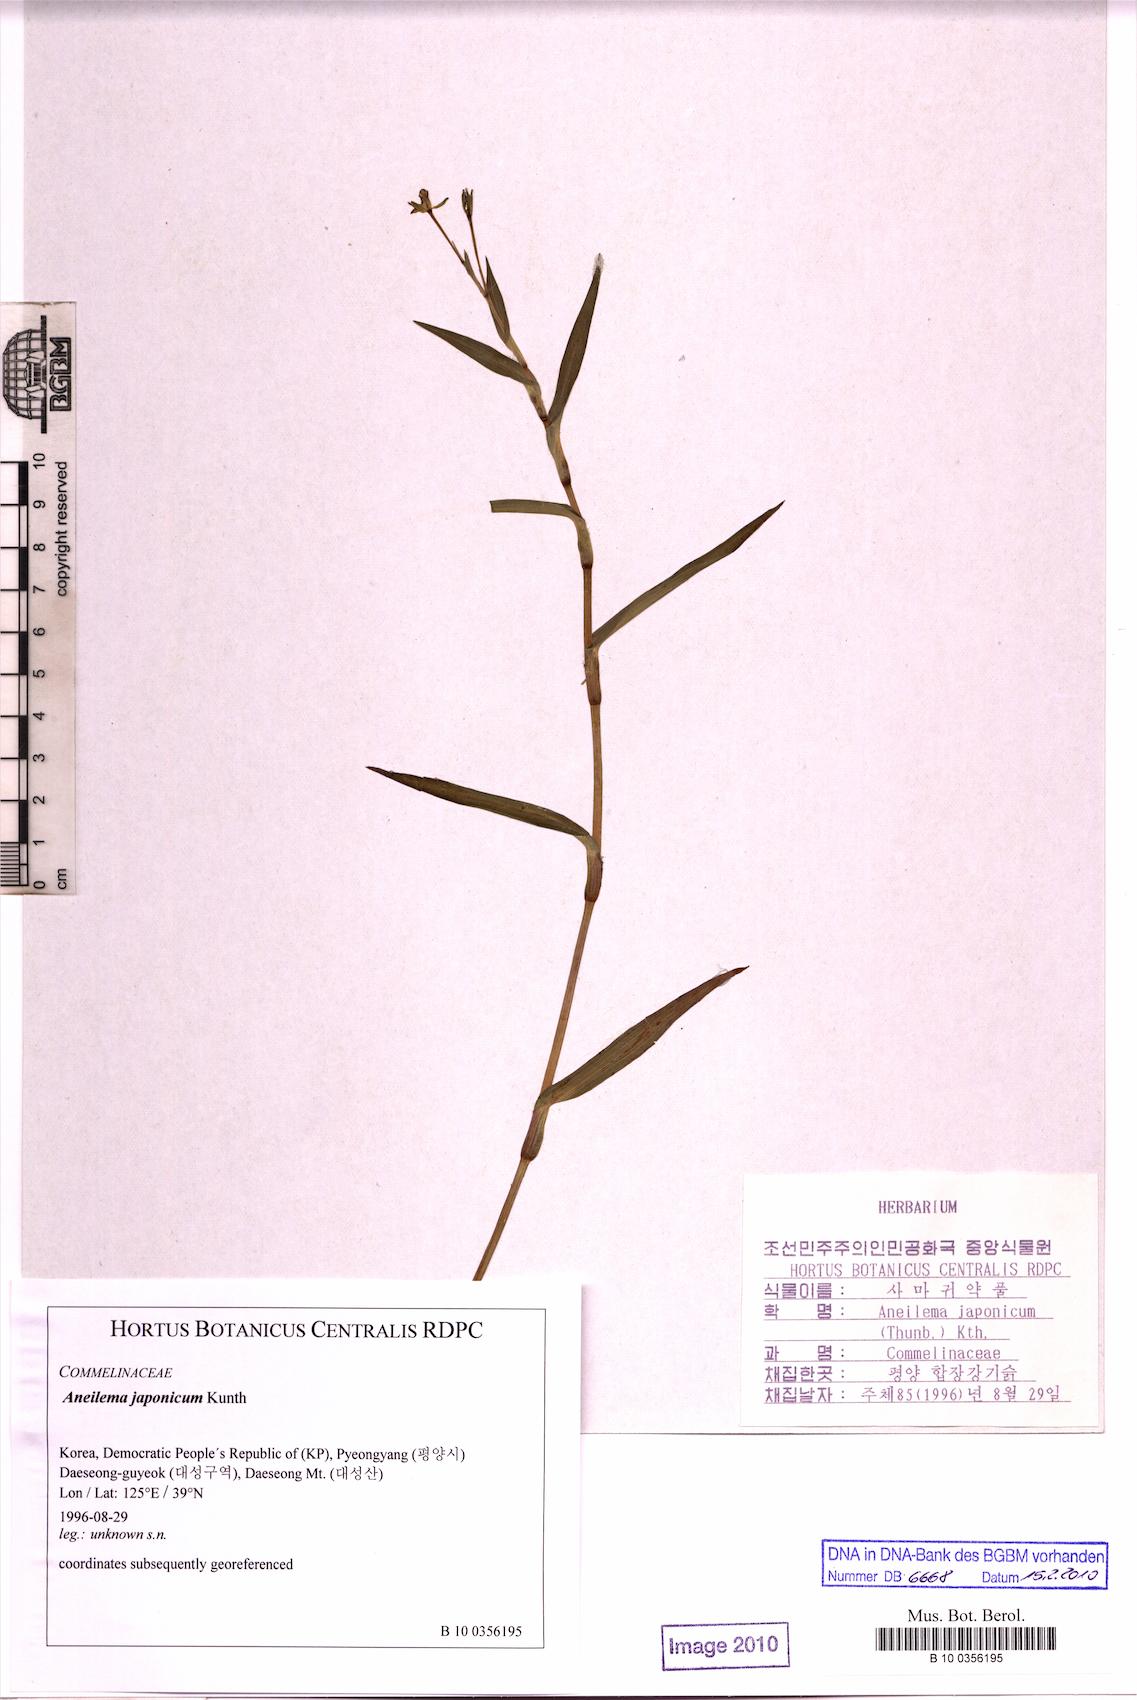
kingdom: Plantae
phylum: Tracheophyta
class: Liliopsida
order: Commelinales
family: Commelinaceae
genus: Murdannia
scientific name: Murdannia japonica
